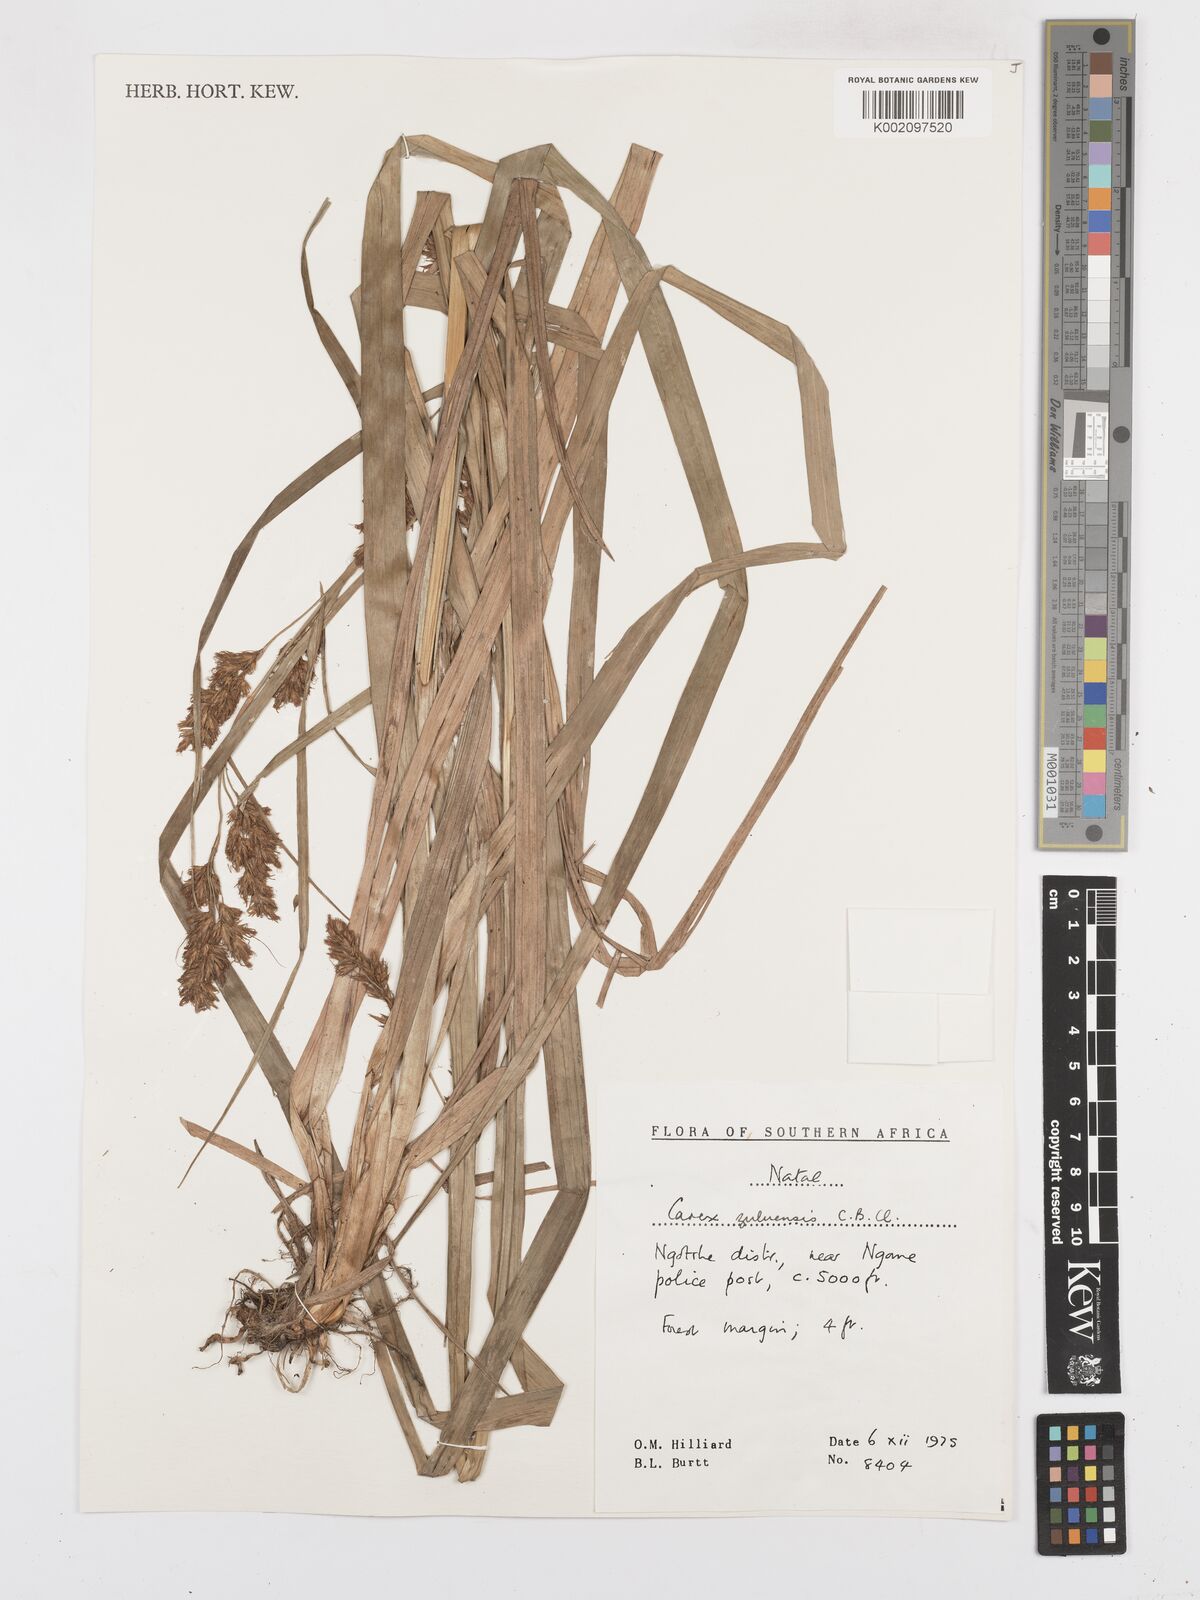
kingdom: Plantae
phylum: Tracheophyta
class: Liliopsida
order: Poales
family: Cyperaceae
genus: Carex
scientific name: Carex steudneri
